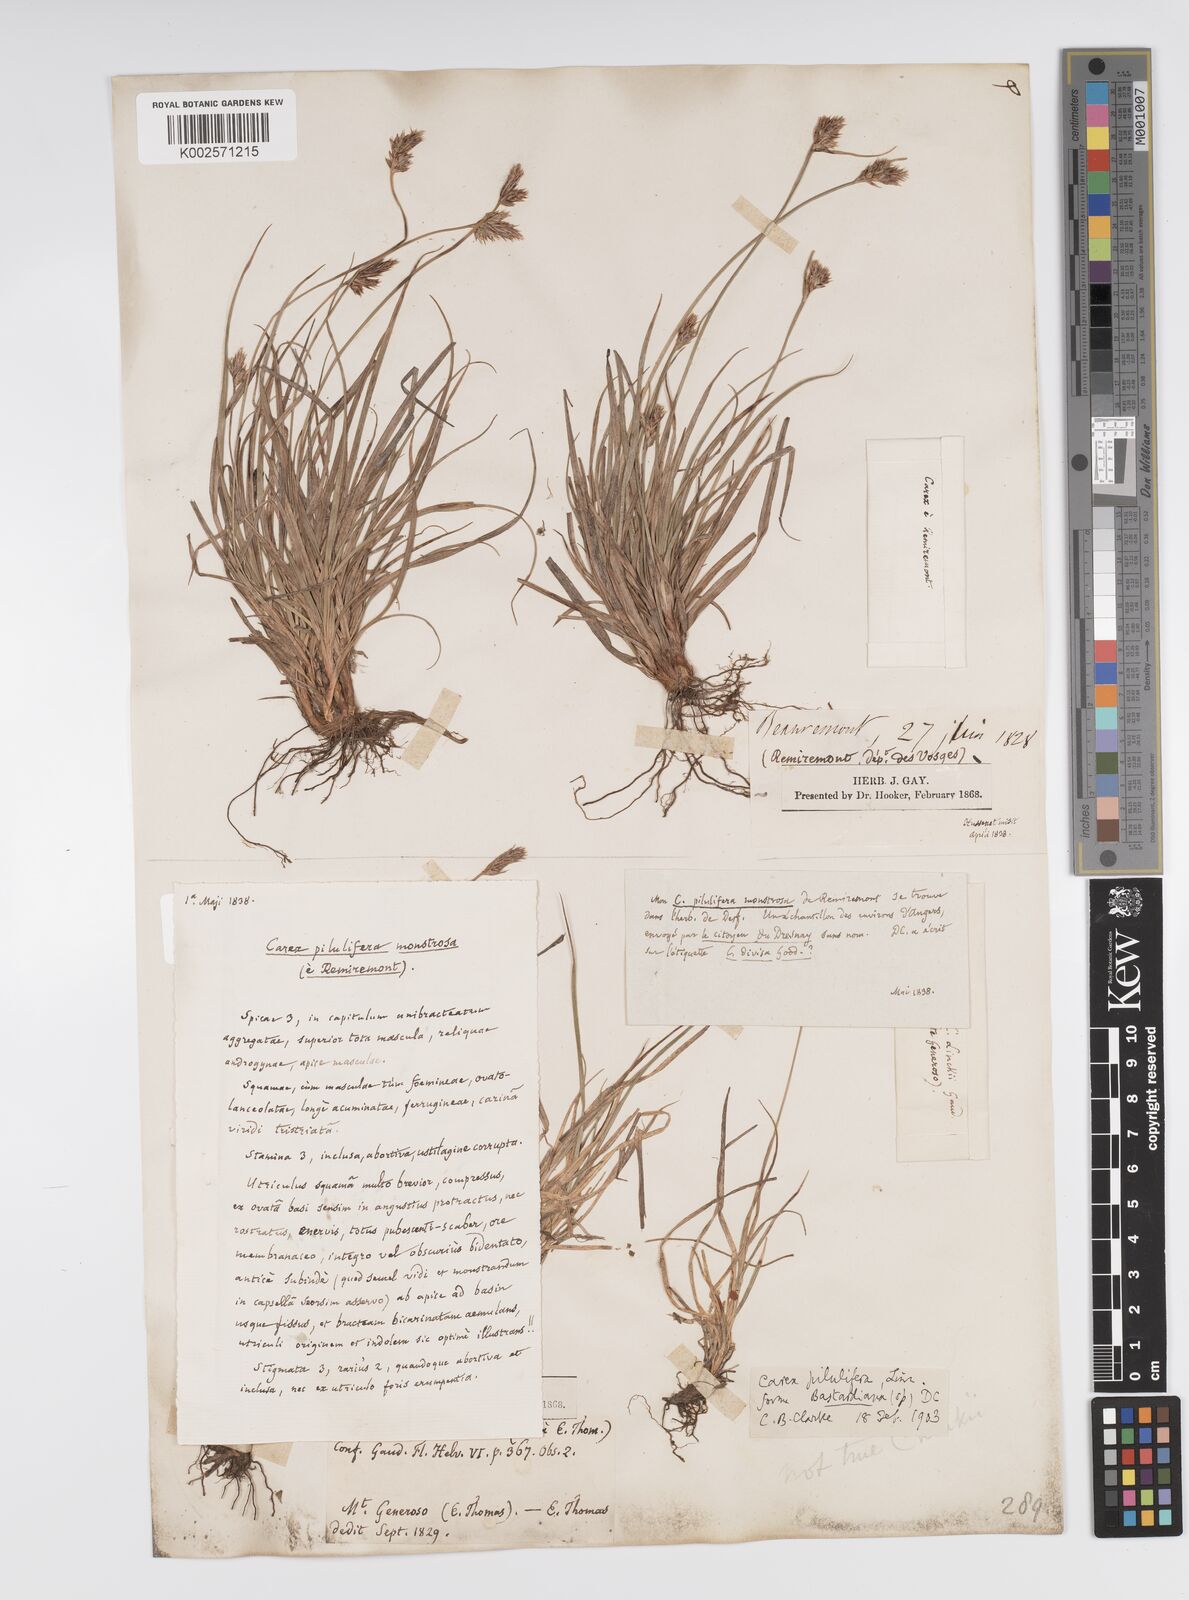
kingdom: Plantae
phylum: Tracheophyta
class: Liliopsida
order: Poales
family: Cyperaceae
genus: Carex
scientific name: Carex pilulifera
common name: Pill sedge
